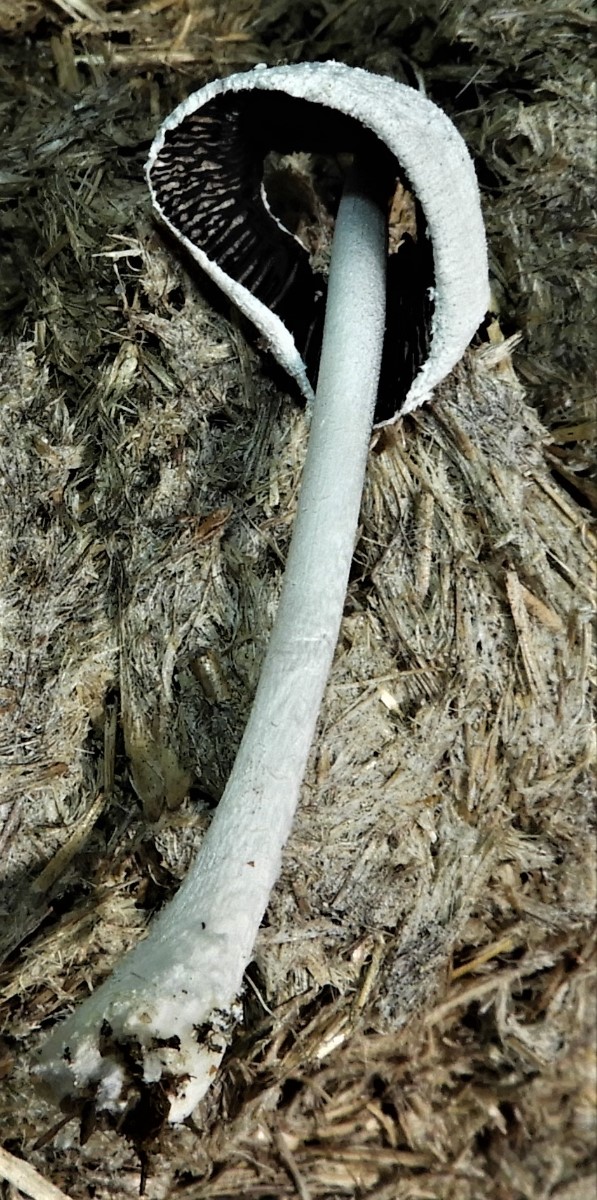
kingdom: Fungi
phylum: Basidiomycota
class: Agaricomycetes
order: Agaricales
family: Psathyrellaceae
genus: Coprinopsis
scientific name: Coprinopsis nivea
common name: snehvid blækhat
